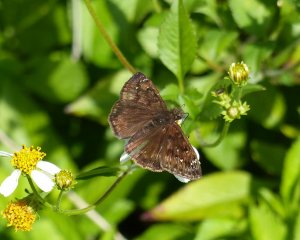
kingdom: Animalia
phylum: Arthropoda
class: Insecta
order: Lepidoptera
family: Hesperiidae
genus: Gesta
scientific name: Gesta
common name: Horace's Duskywing
